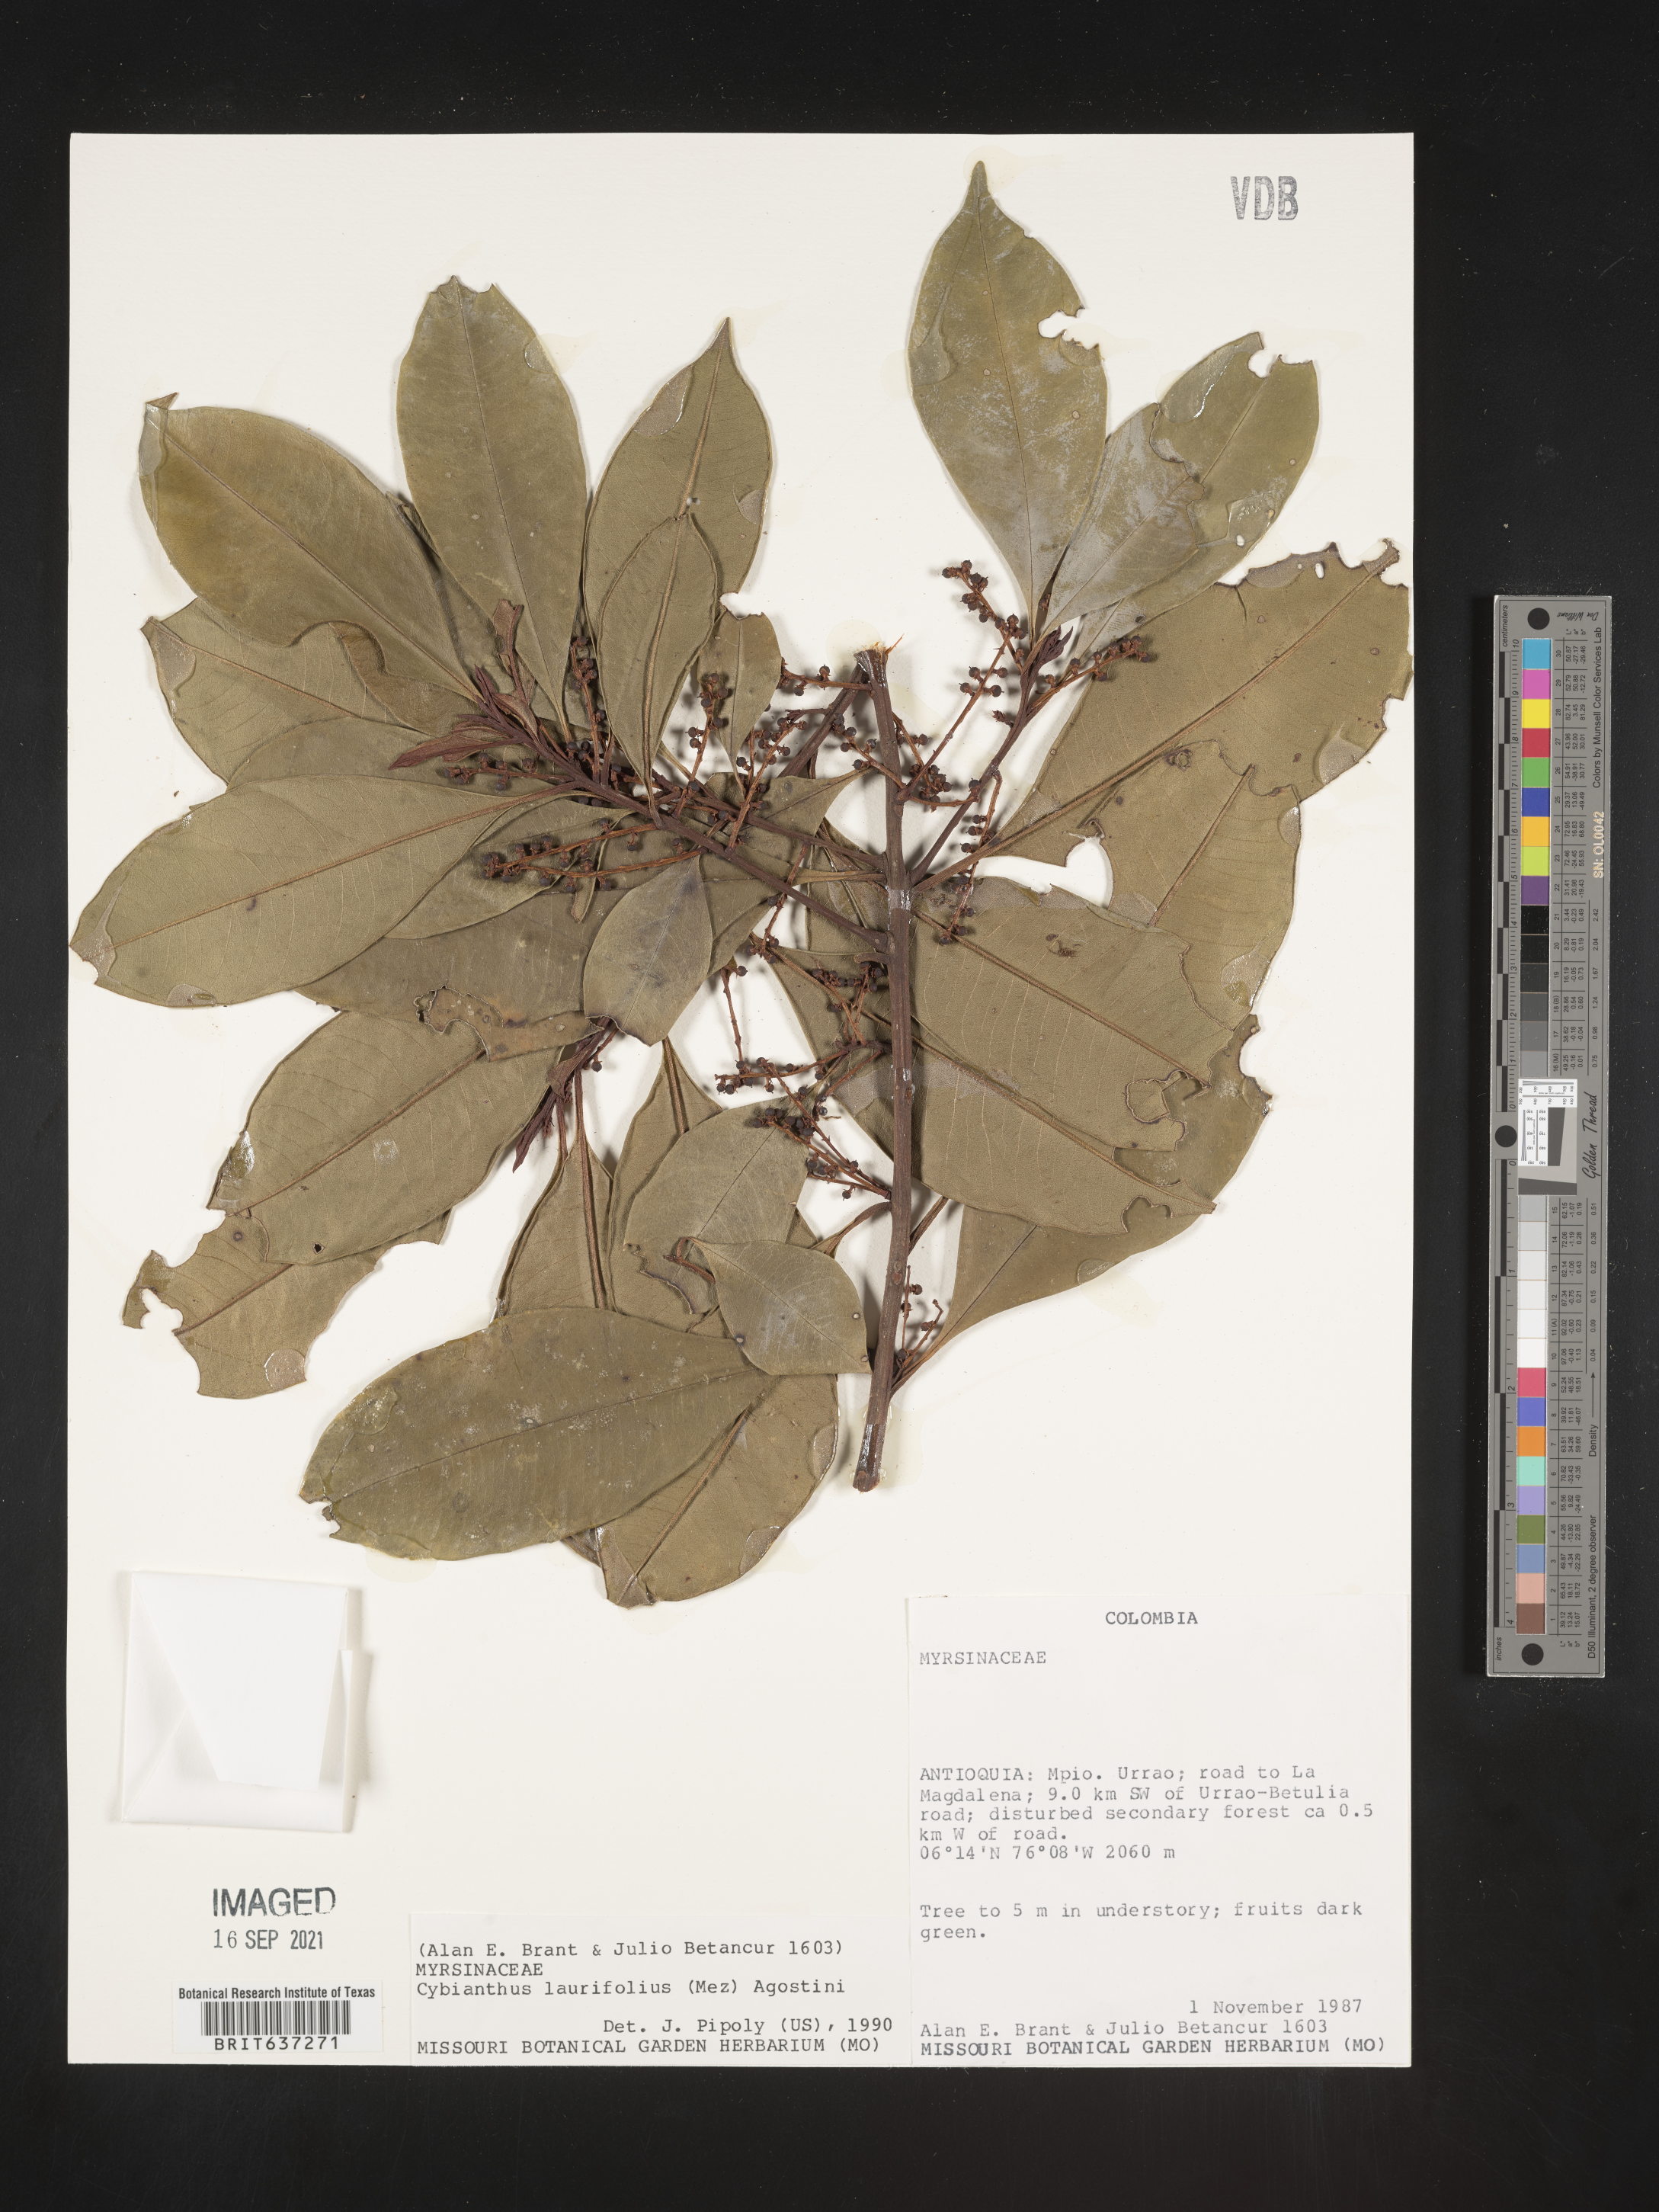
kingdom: Plantae
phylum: Tracheophyta
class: Magnoliopsida
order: Ericales
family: Primulaceae
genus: Cybianthus
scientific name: Cybianthus
